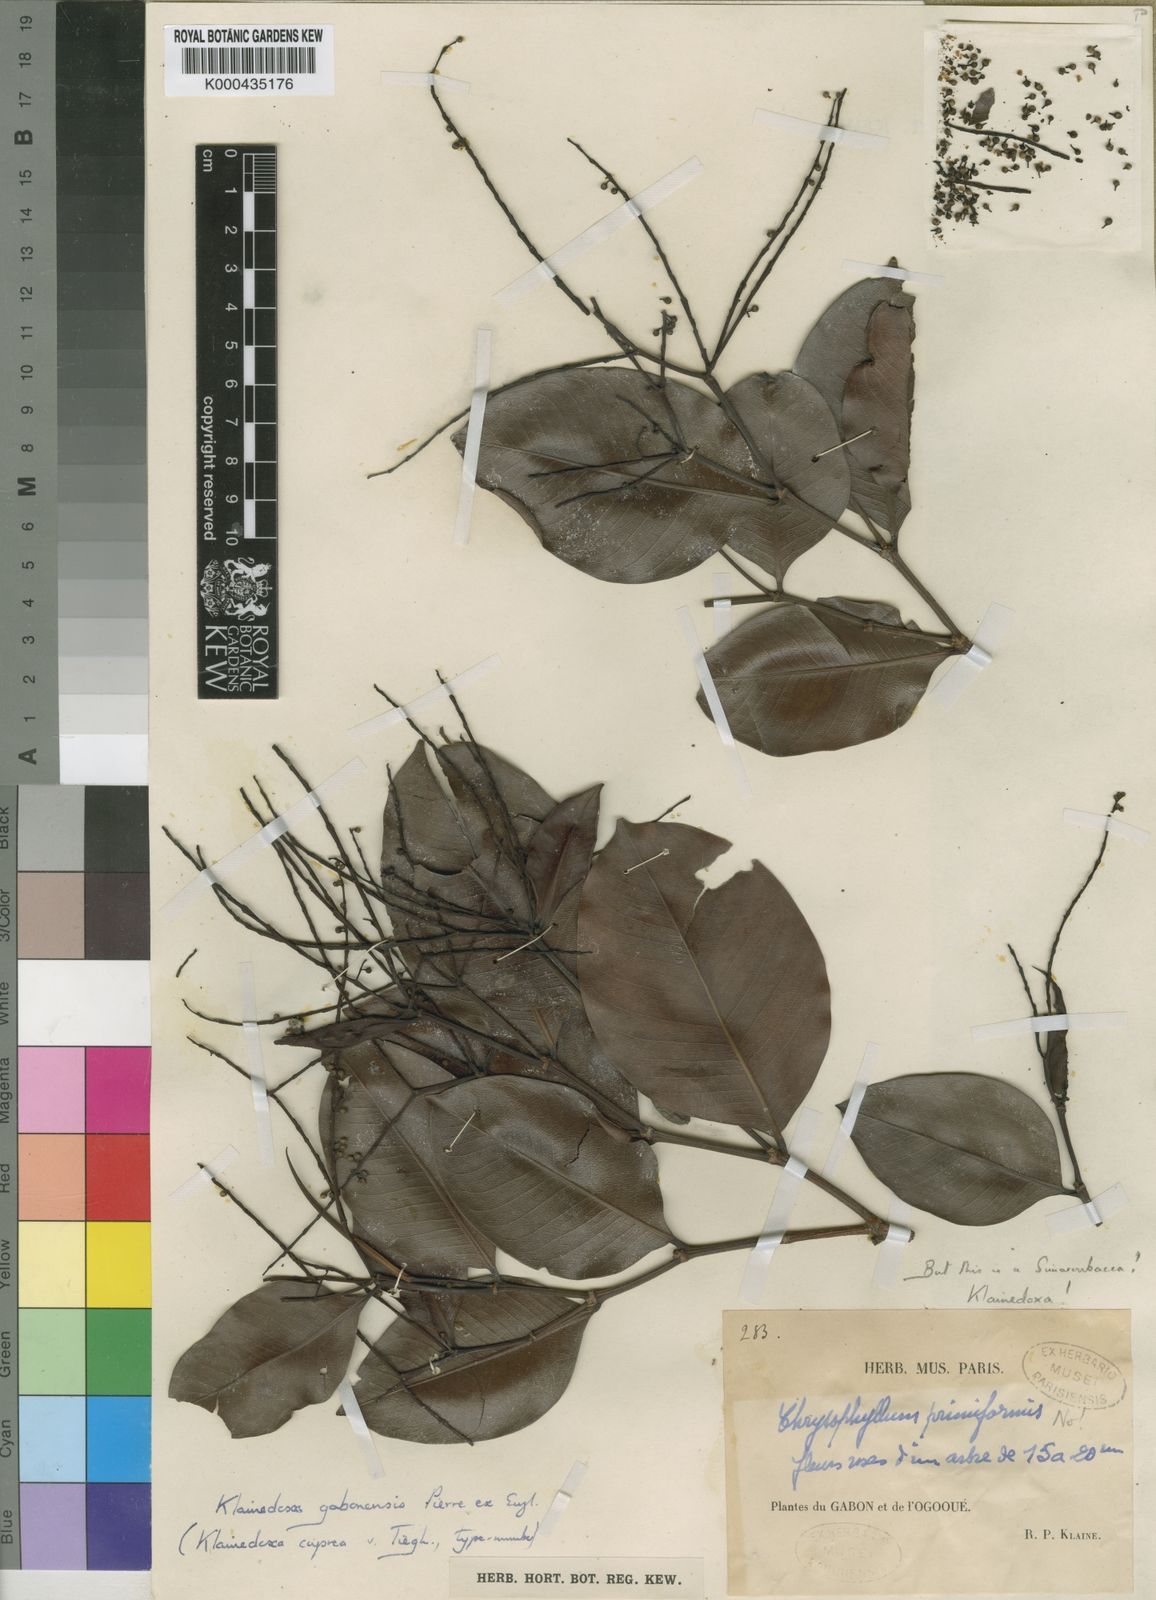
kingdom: Plantae
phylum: Tracheophyta
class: Magnoliopsida
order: Malpighiales
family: Irvingiaceae
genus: Klainedoxa
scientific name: Klainedoxa gabonensis
